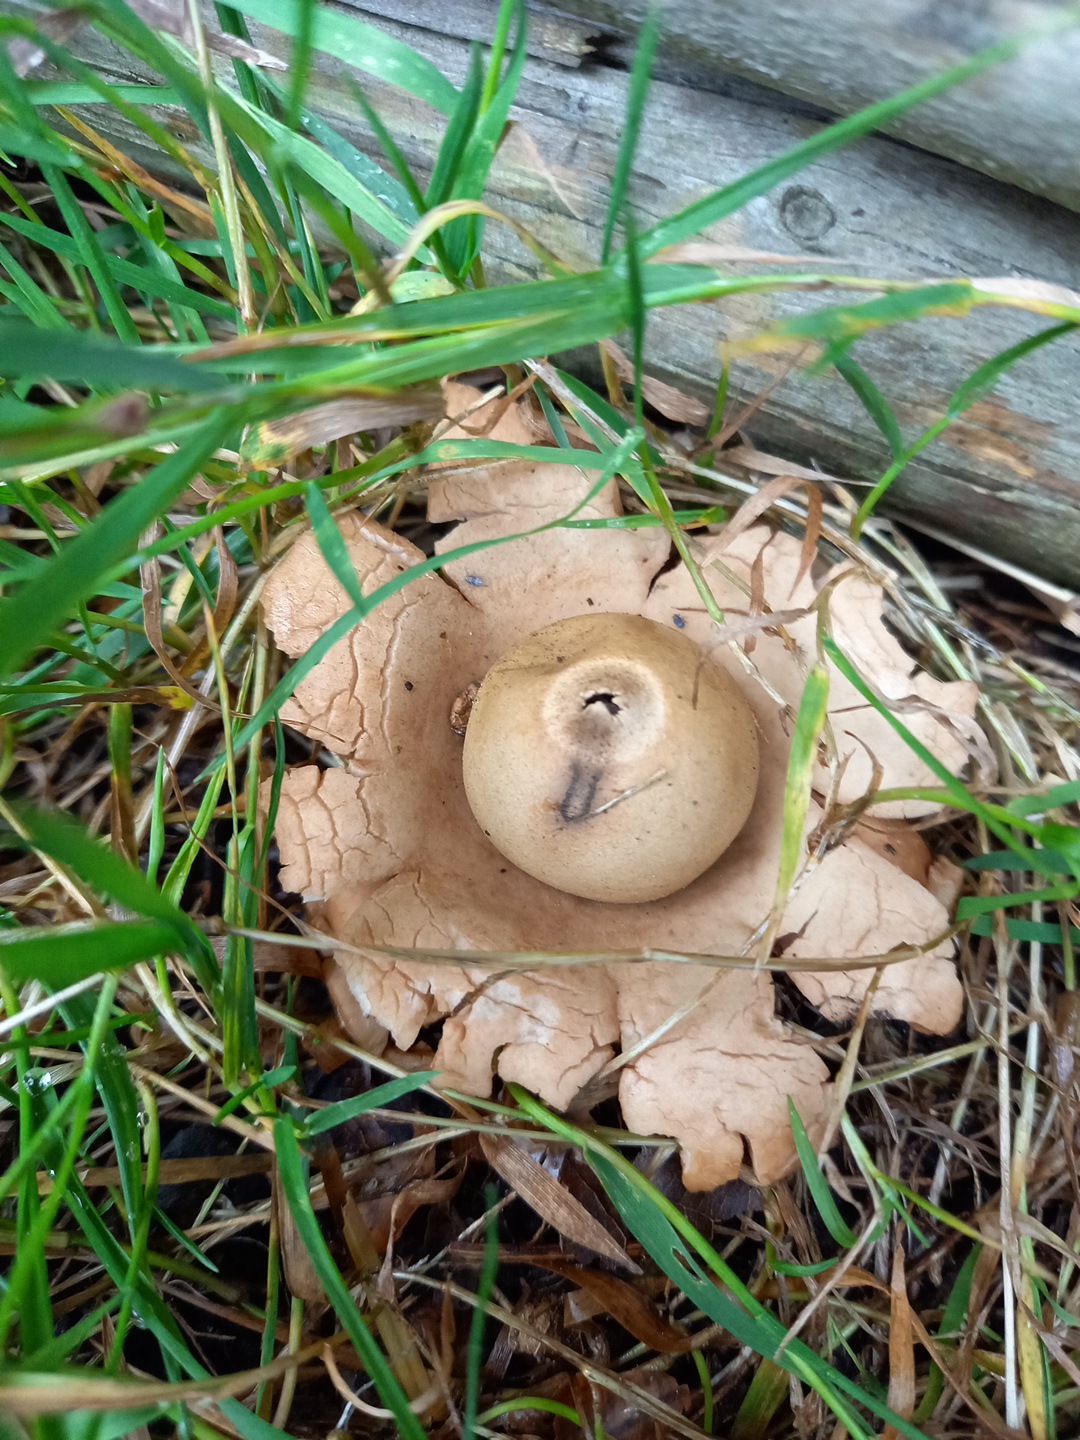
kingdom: Fungi
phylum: Basidiomycota
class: Agaricomycetes
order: Geastrales
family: Geastraceae
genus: Geastrum
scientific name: Geastrum michelianum
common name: kødet stjernebold
